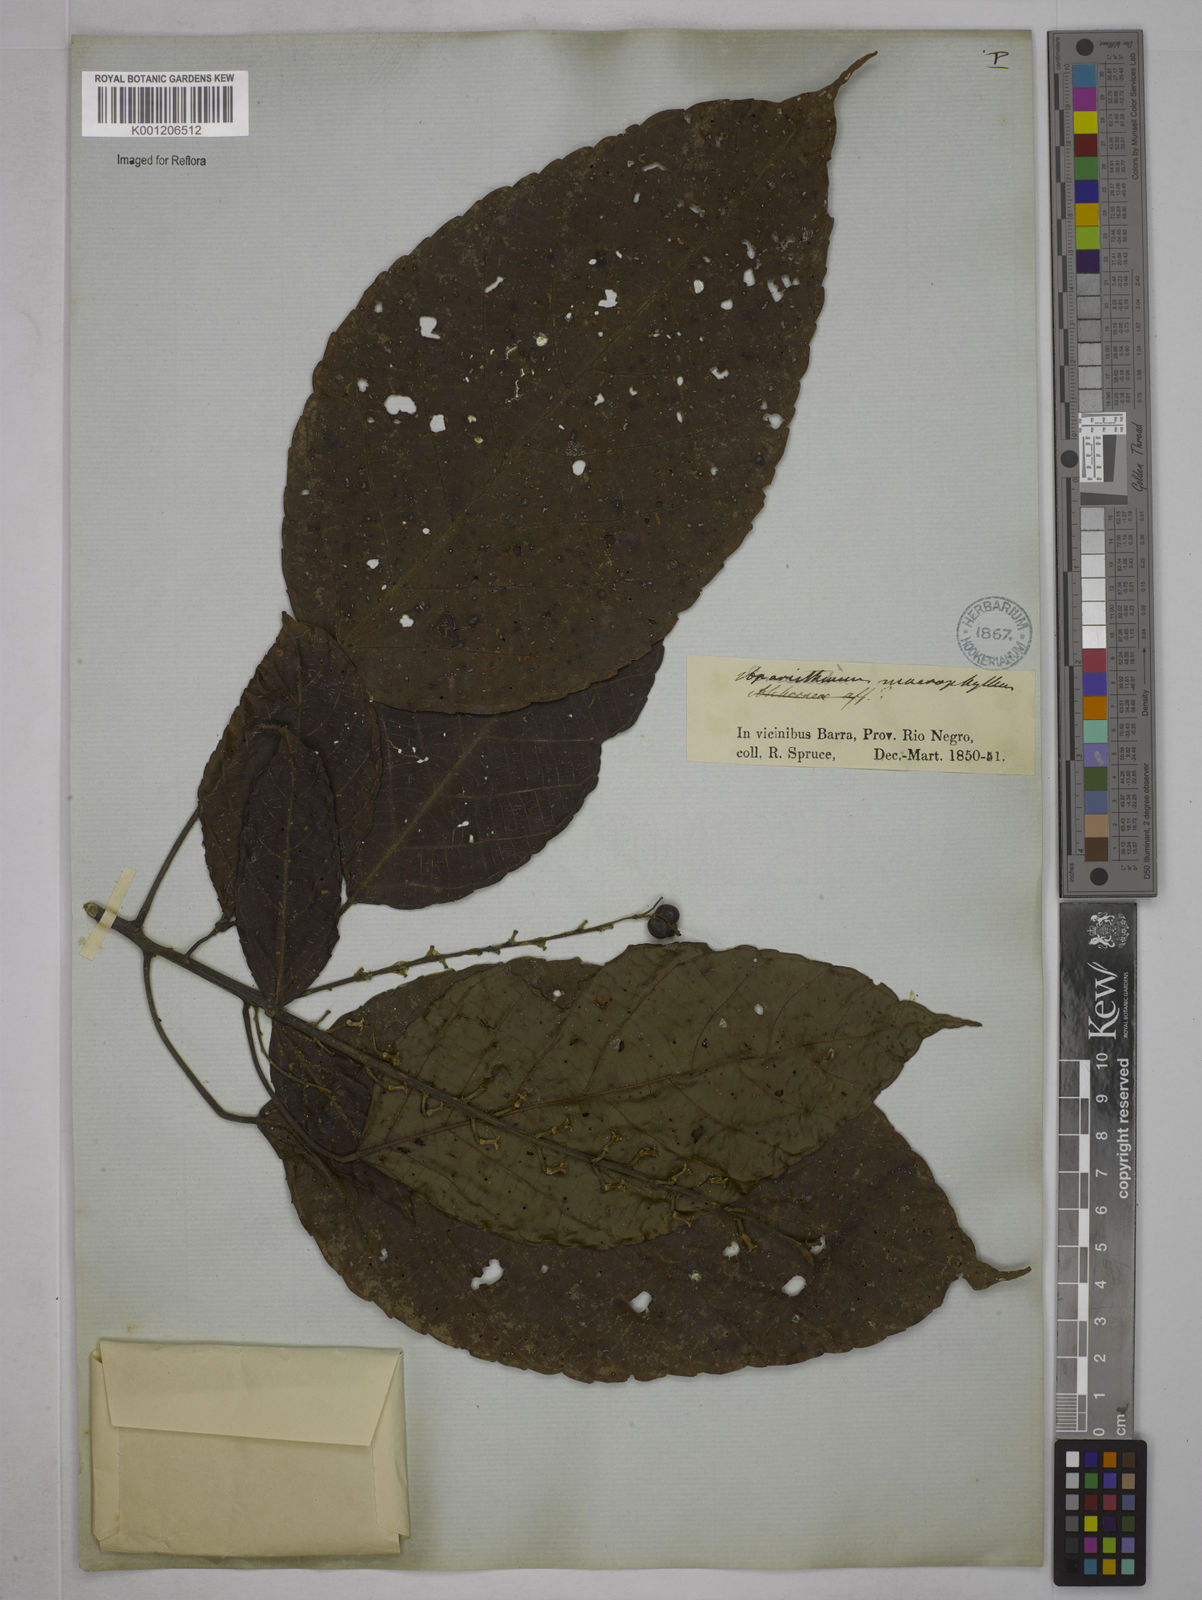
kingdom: Plantae
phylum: Tracheophyta
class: Magnoliopsida
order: Malpighiales
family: Euphorbiaceae
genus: Aparisthmium
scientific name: Aparisthmium cordatum
